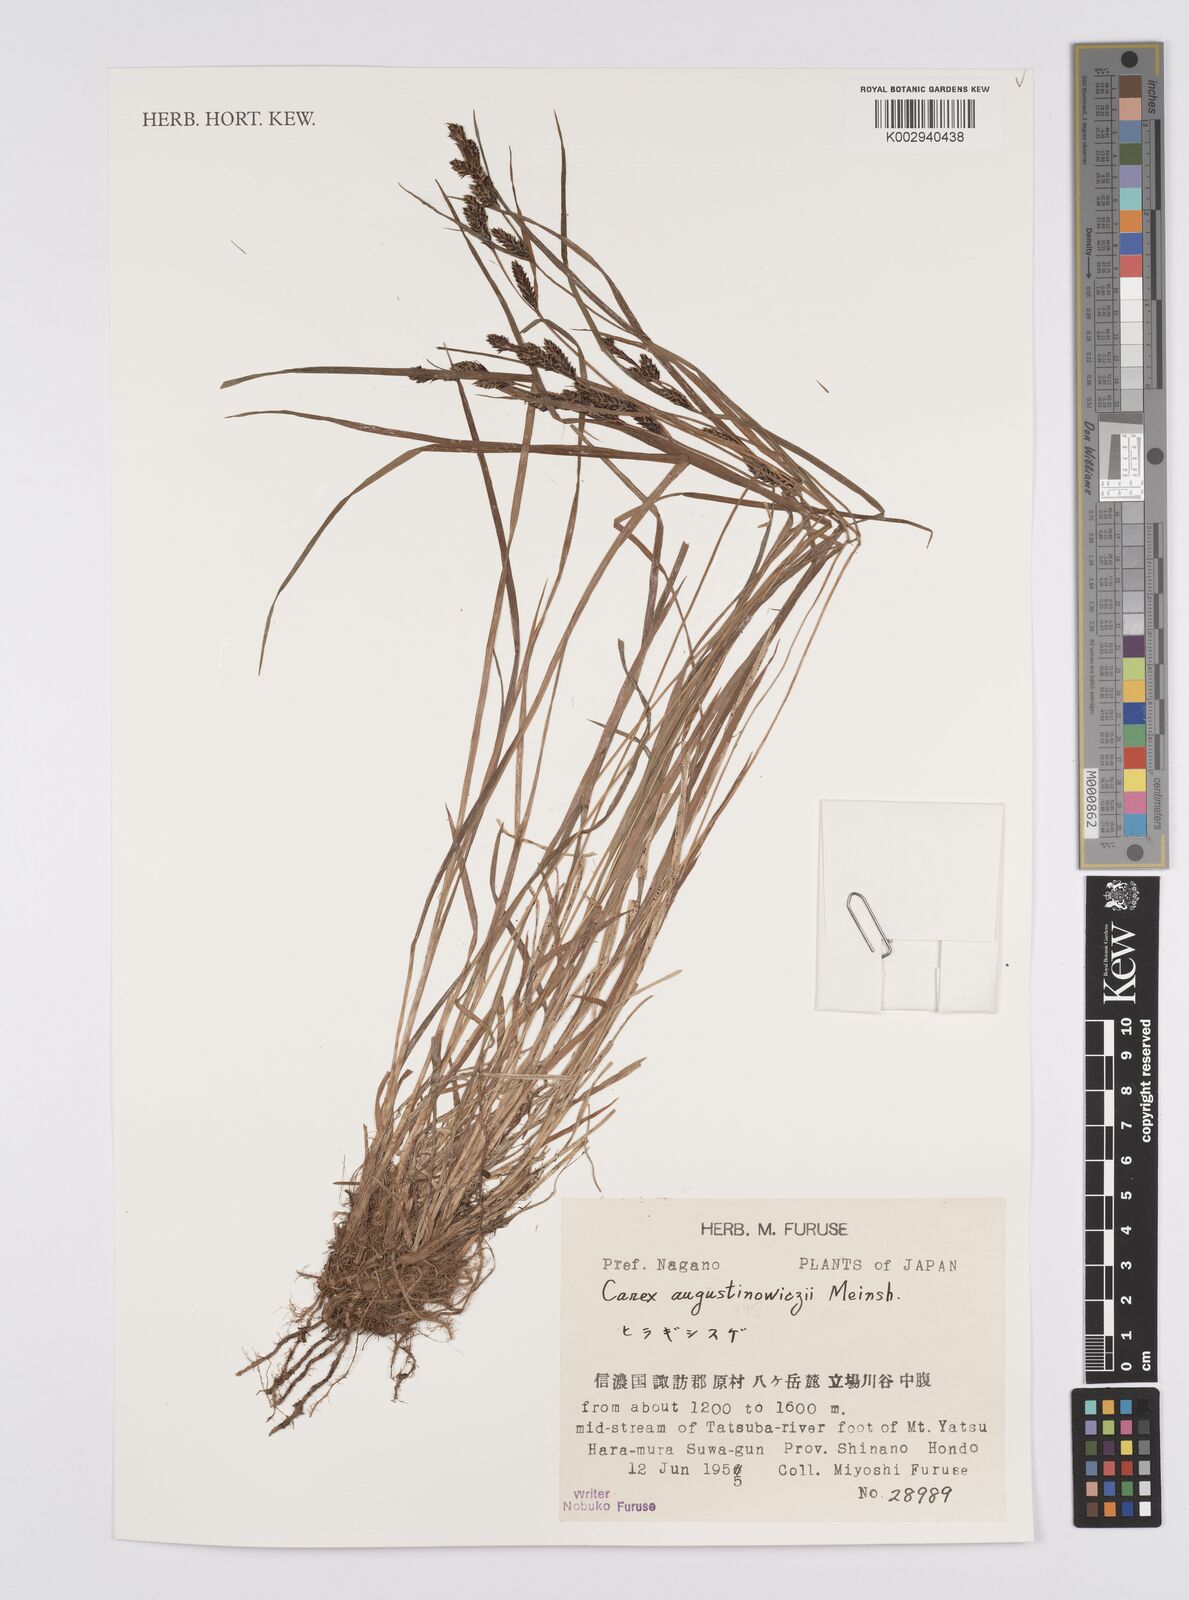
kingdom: Plantae
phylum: Tracheophyta
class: Liliopsida
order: Poales
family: Cyperaceae
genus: Carex
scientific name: Carex augustinowiczii
